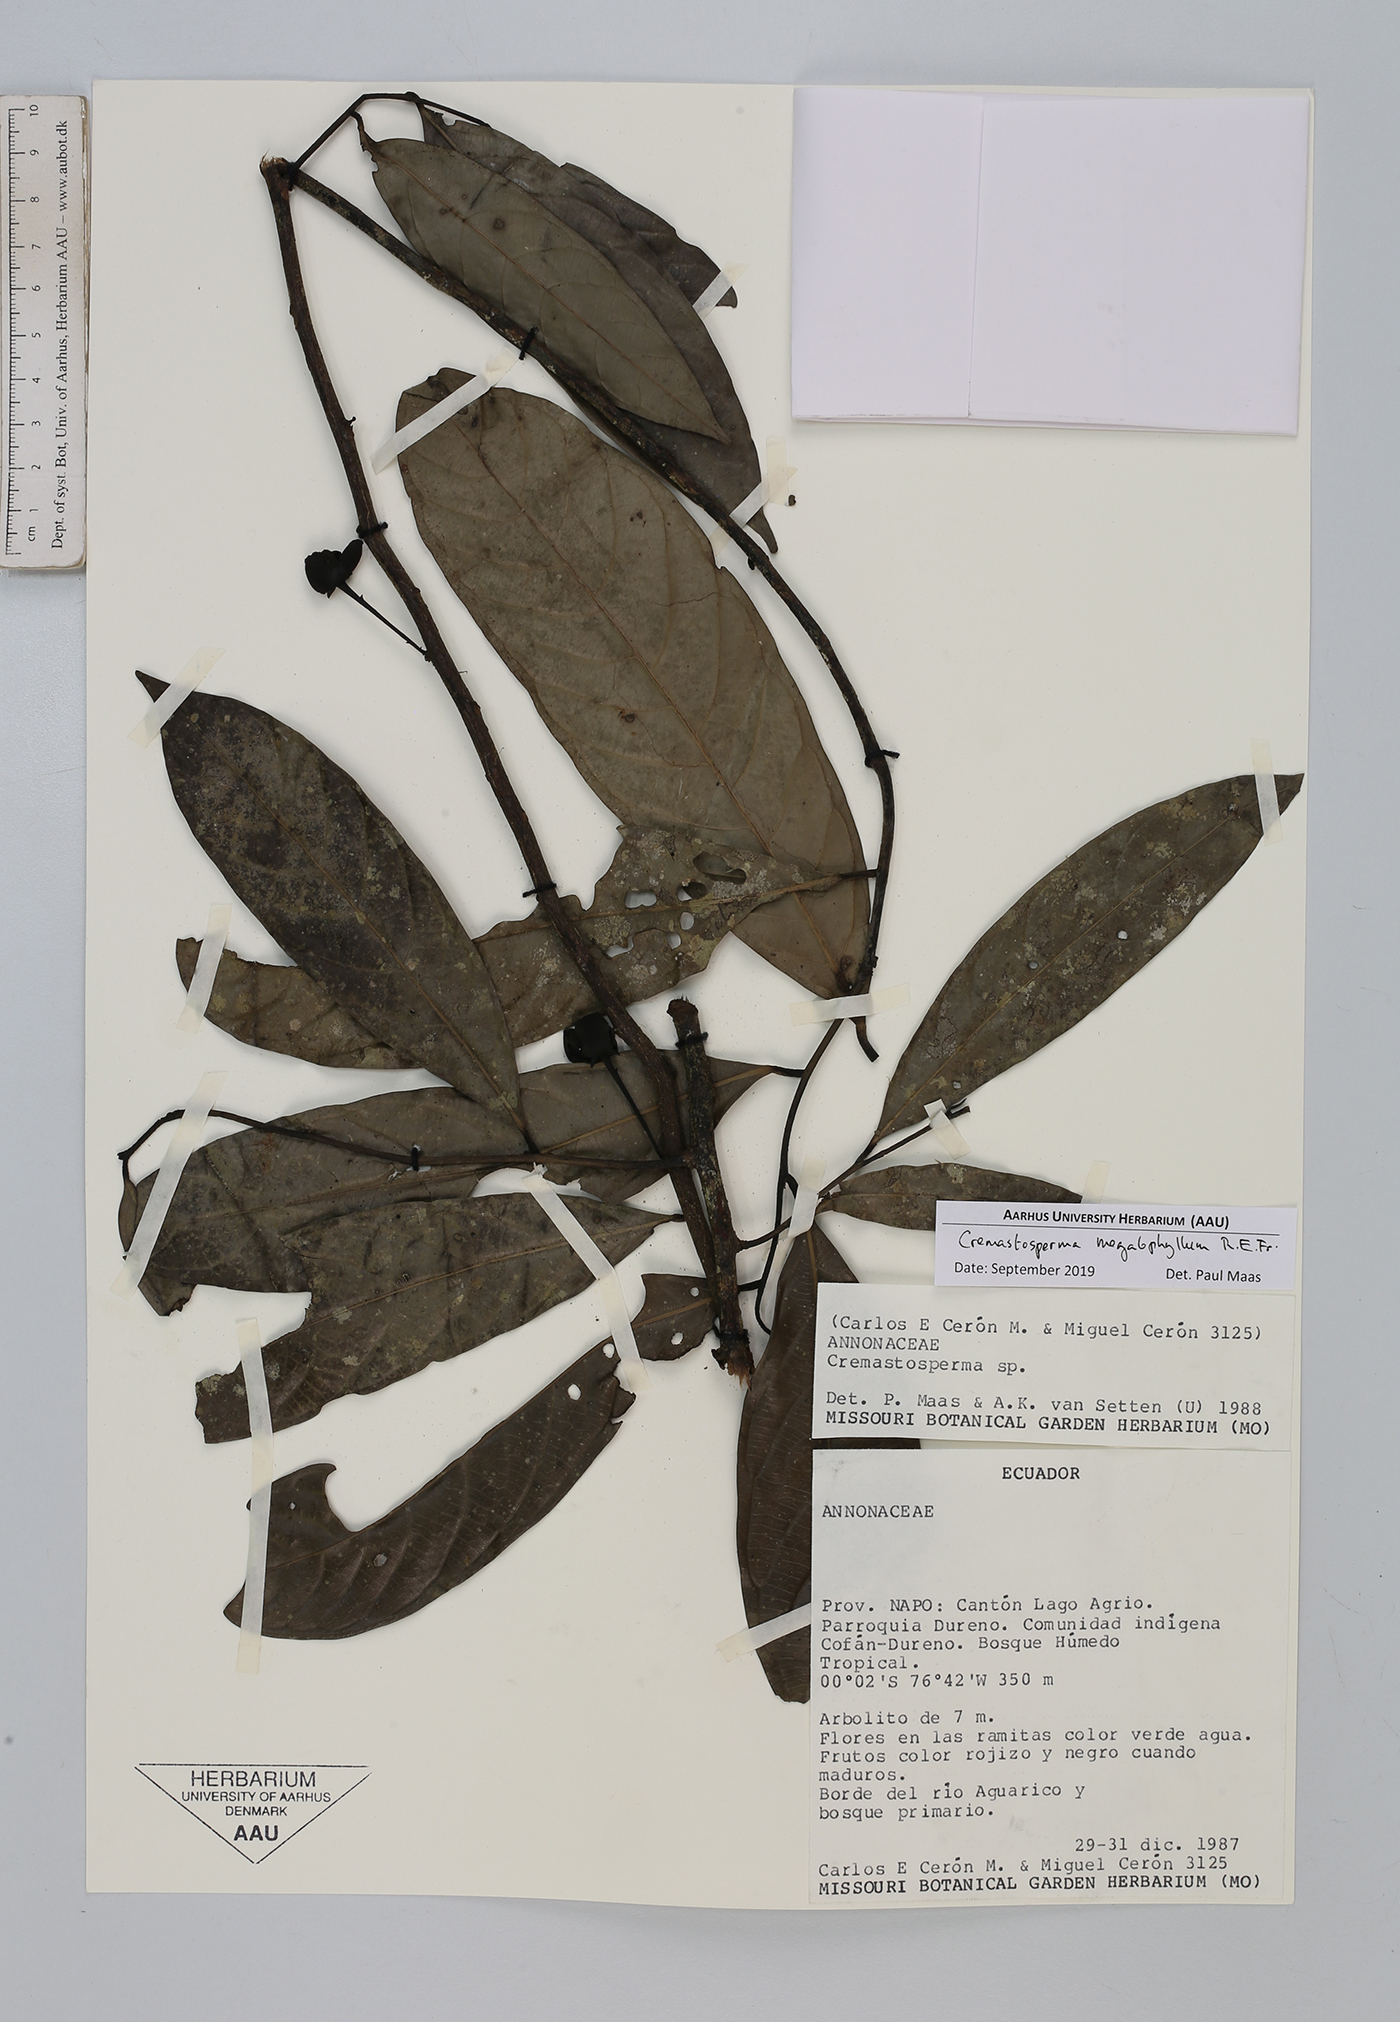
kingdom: Plantae
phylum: Tracheophyta
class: Magnoliopsida
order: Magnoliales
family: Annonaceae
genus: Cremastosperma
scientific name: Cremastosperma megalophyllum
